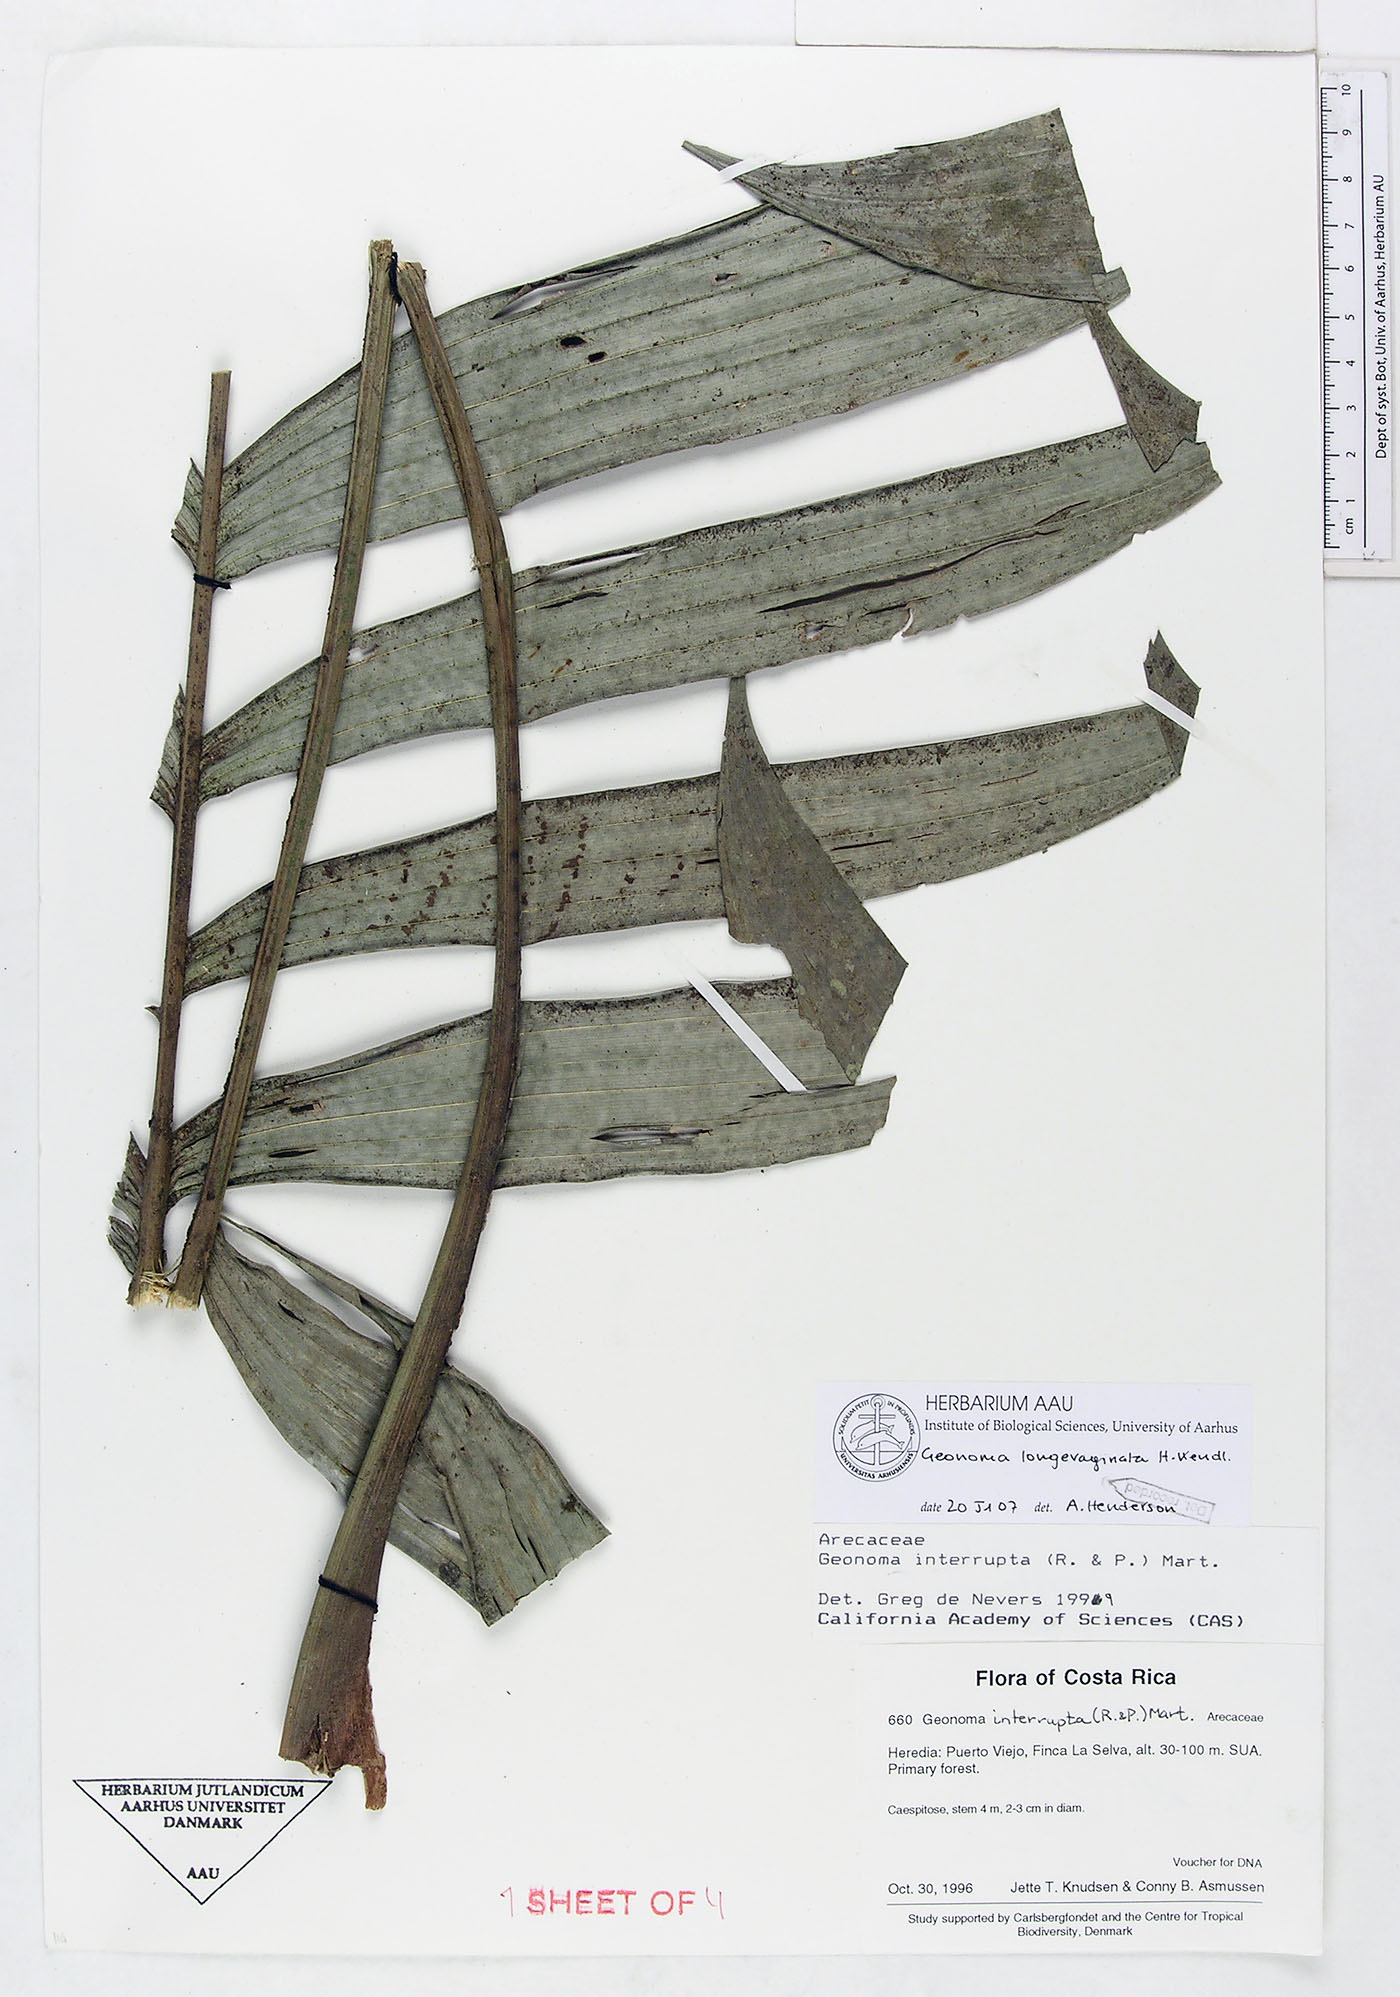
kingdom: Plantae
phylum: Tracheophyta
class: Liliopsida
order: Arecales
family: Arecaceae
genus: Geonoma
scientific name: Geonoma longivaginata
